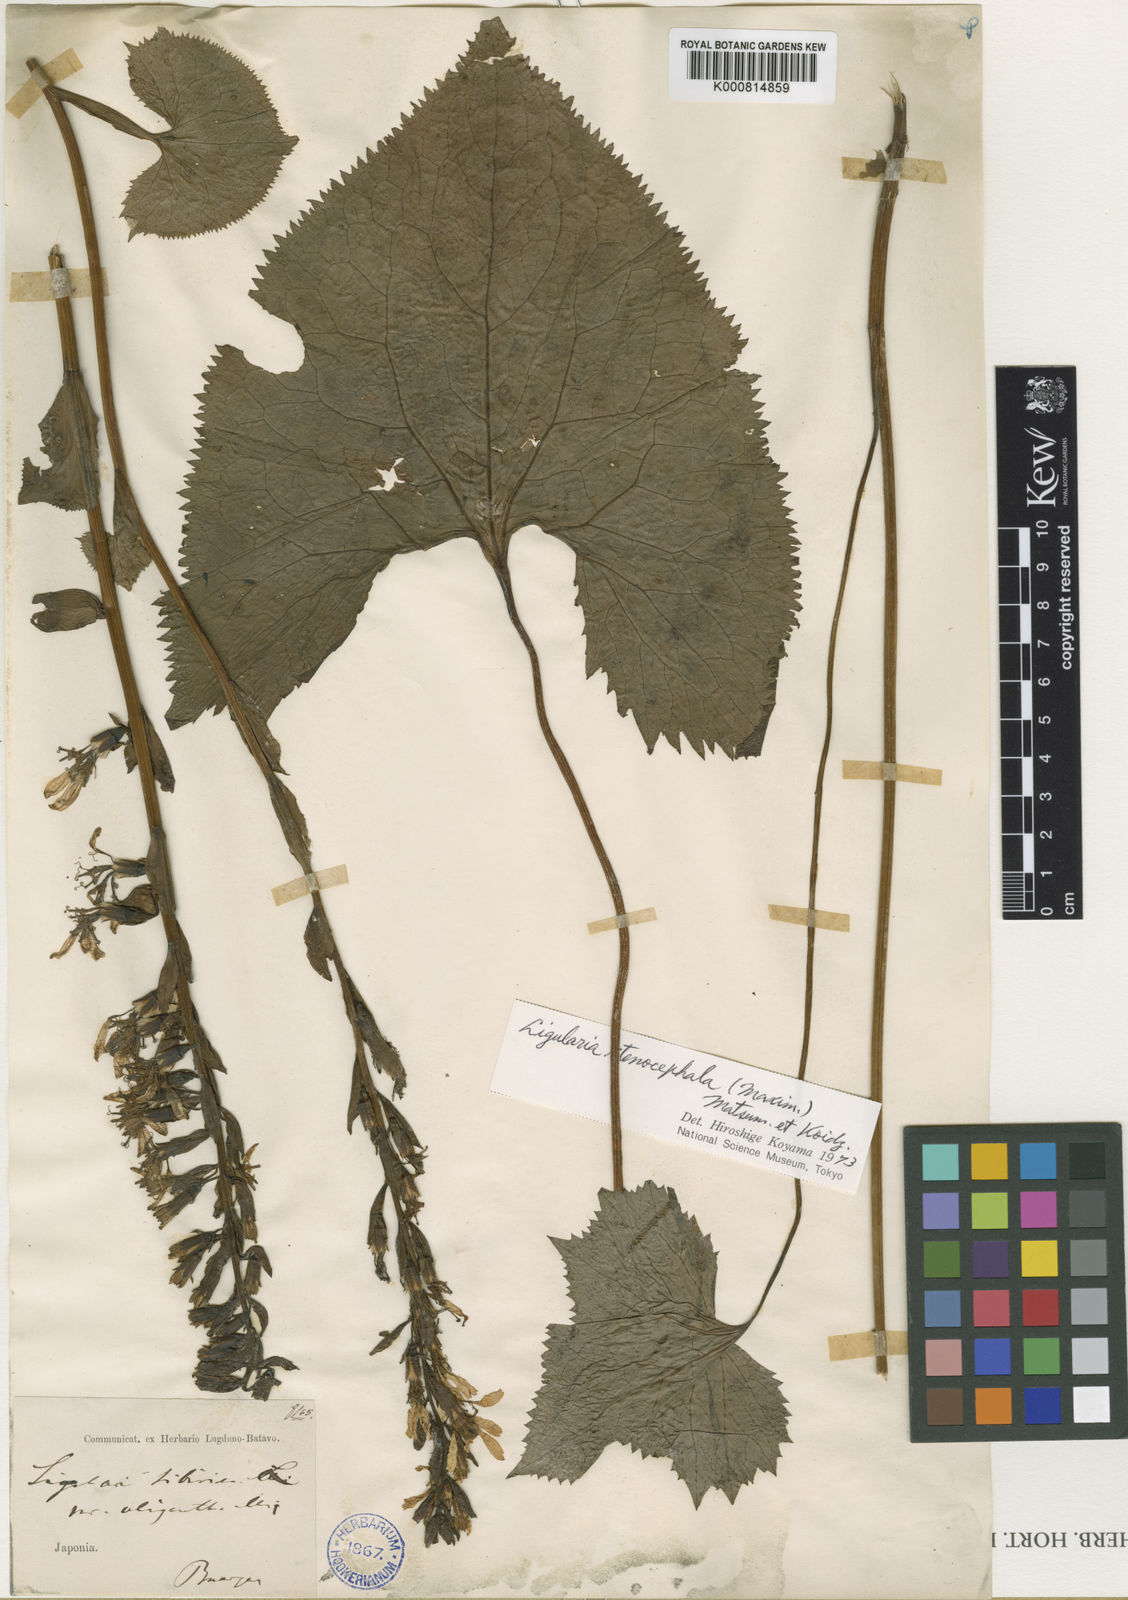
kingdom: Plantae
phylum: Tracheophyta
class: Magnoliopsida
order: Asterales
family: Asteraceae
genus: Ligularia
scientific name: Ligularia
